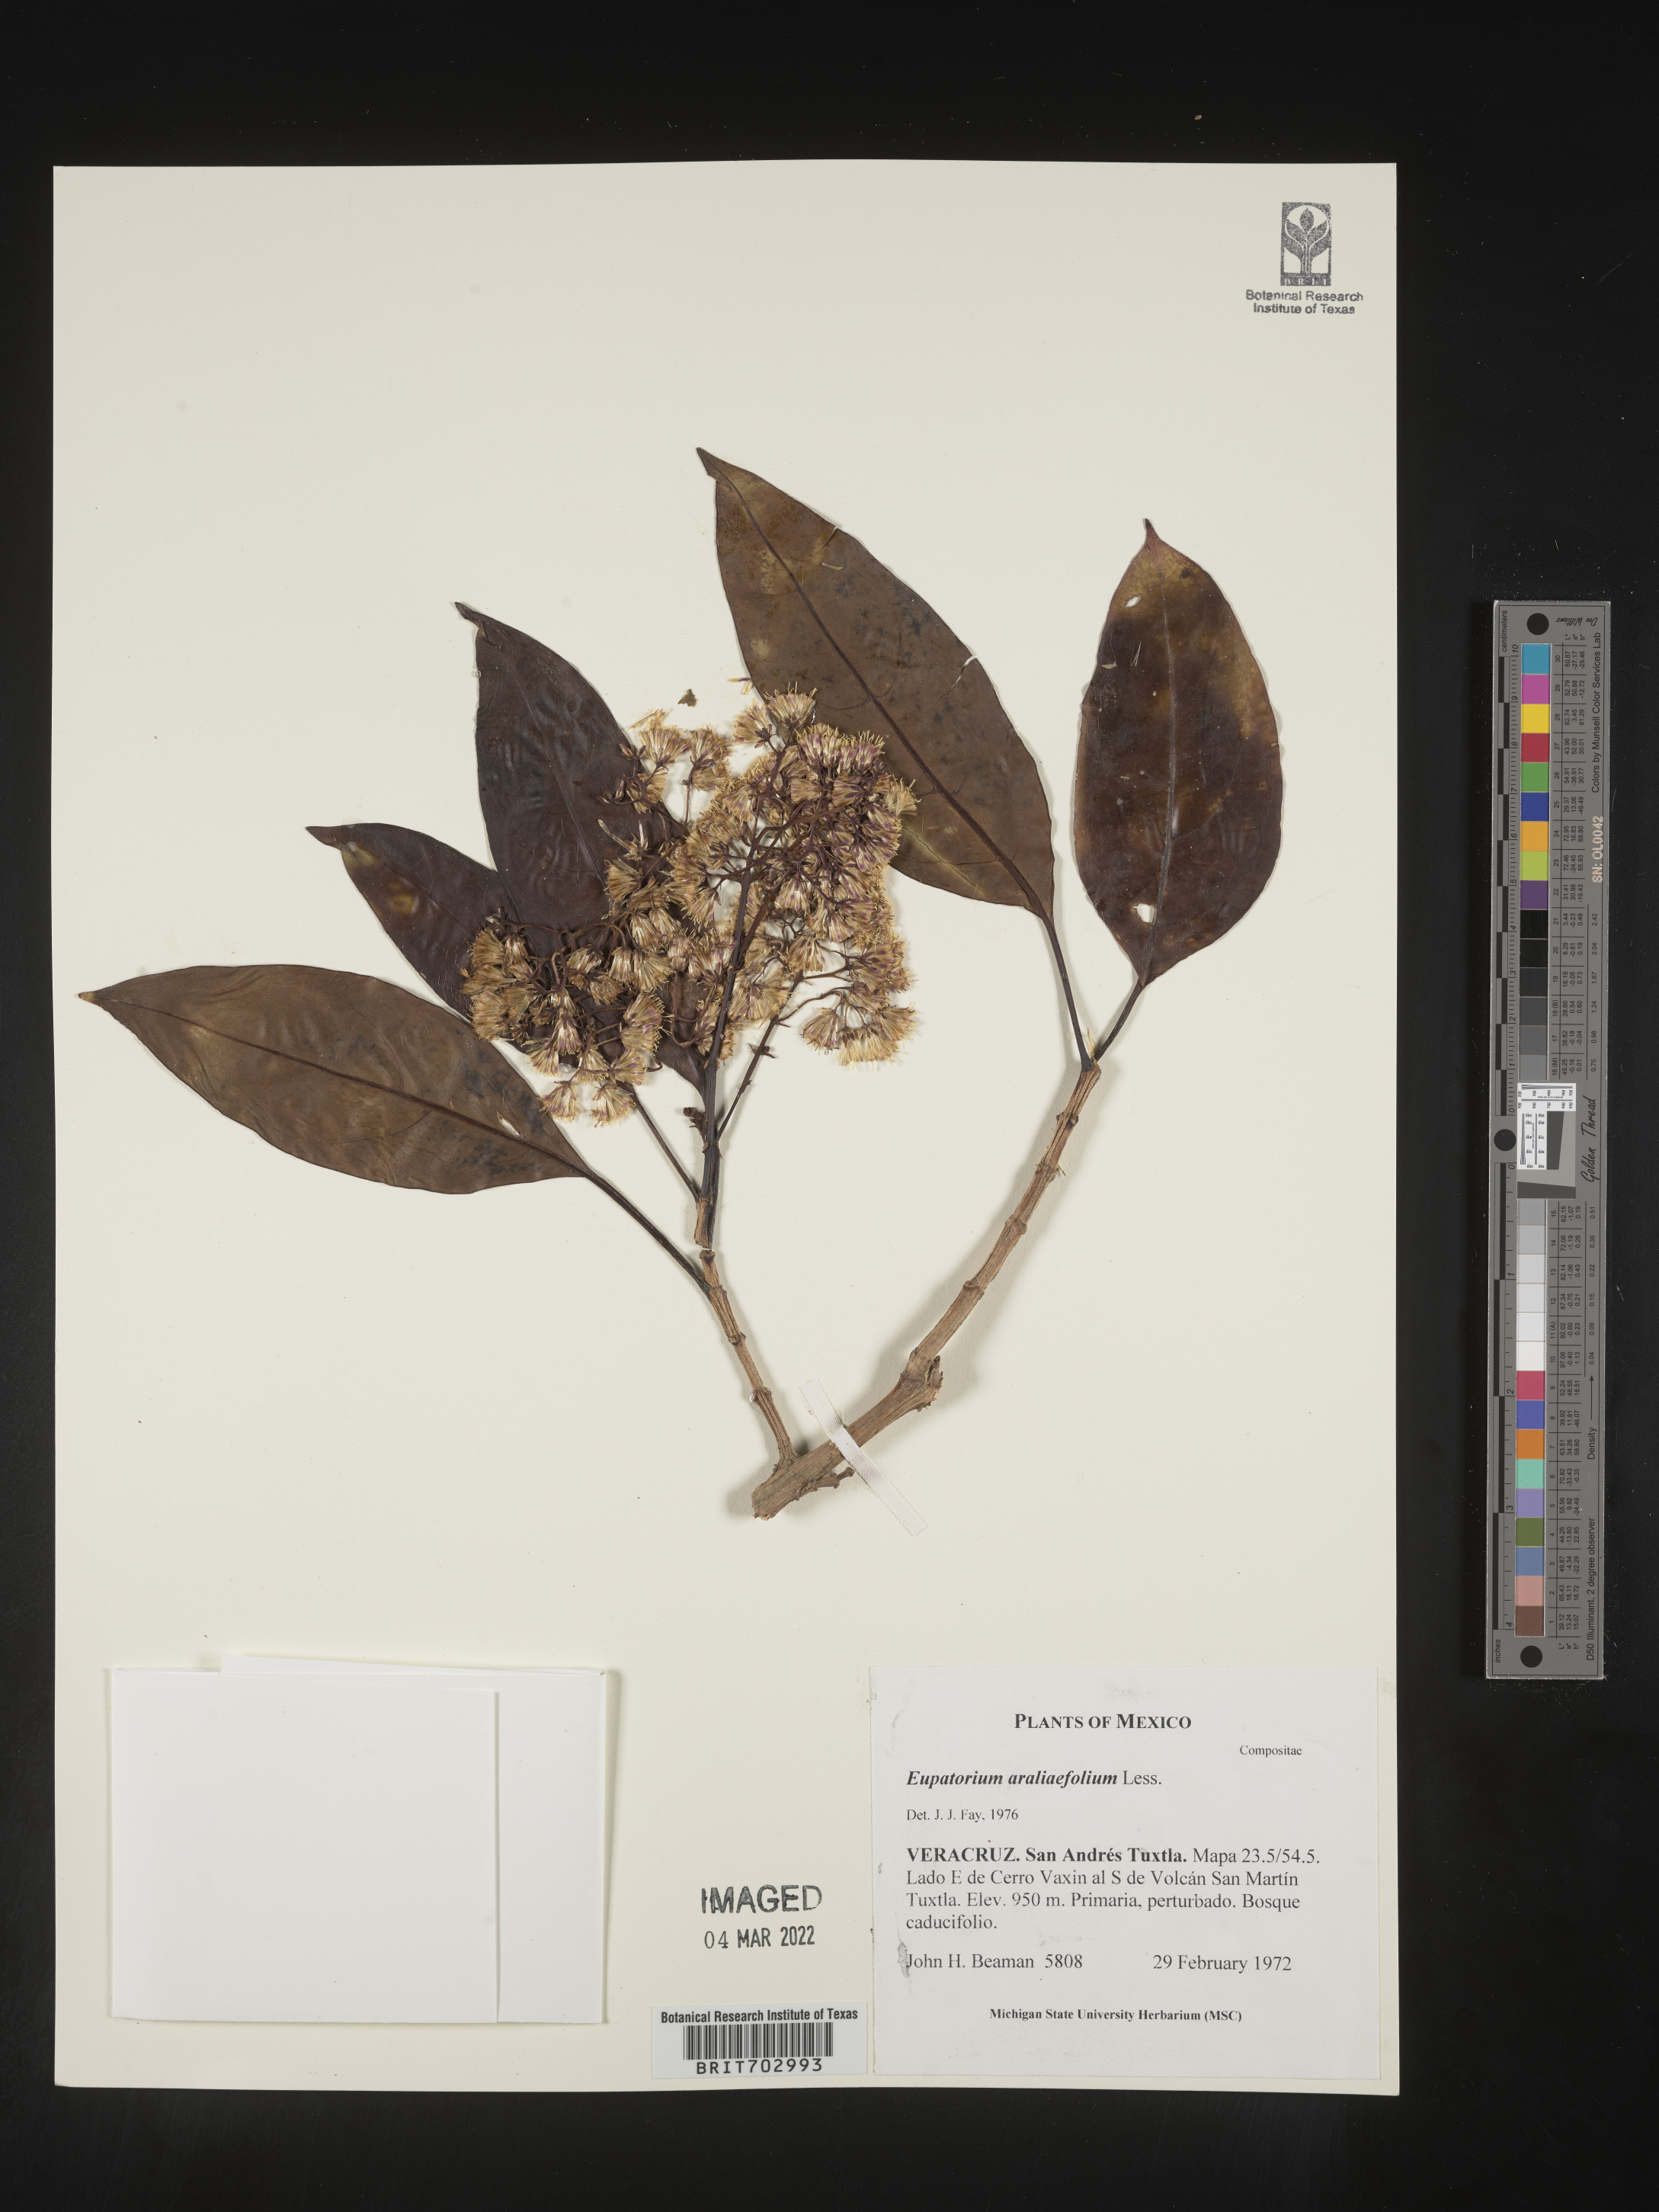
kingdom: Plantae
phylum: Tracheophyta
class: Magnoliopsida
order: Asterales
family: Asteraceae
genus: Eupatorium
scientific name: Eupatorium
